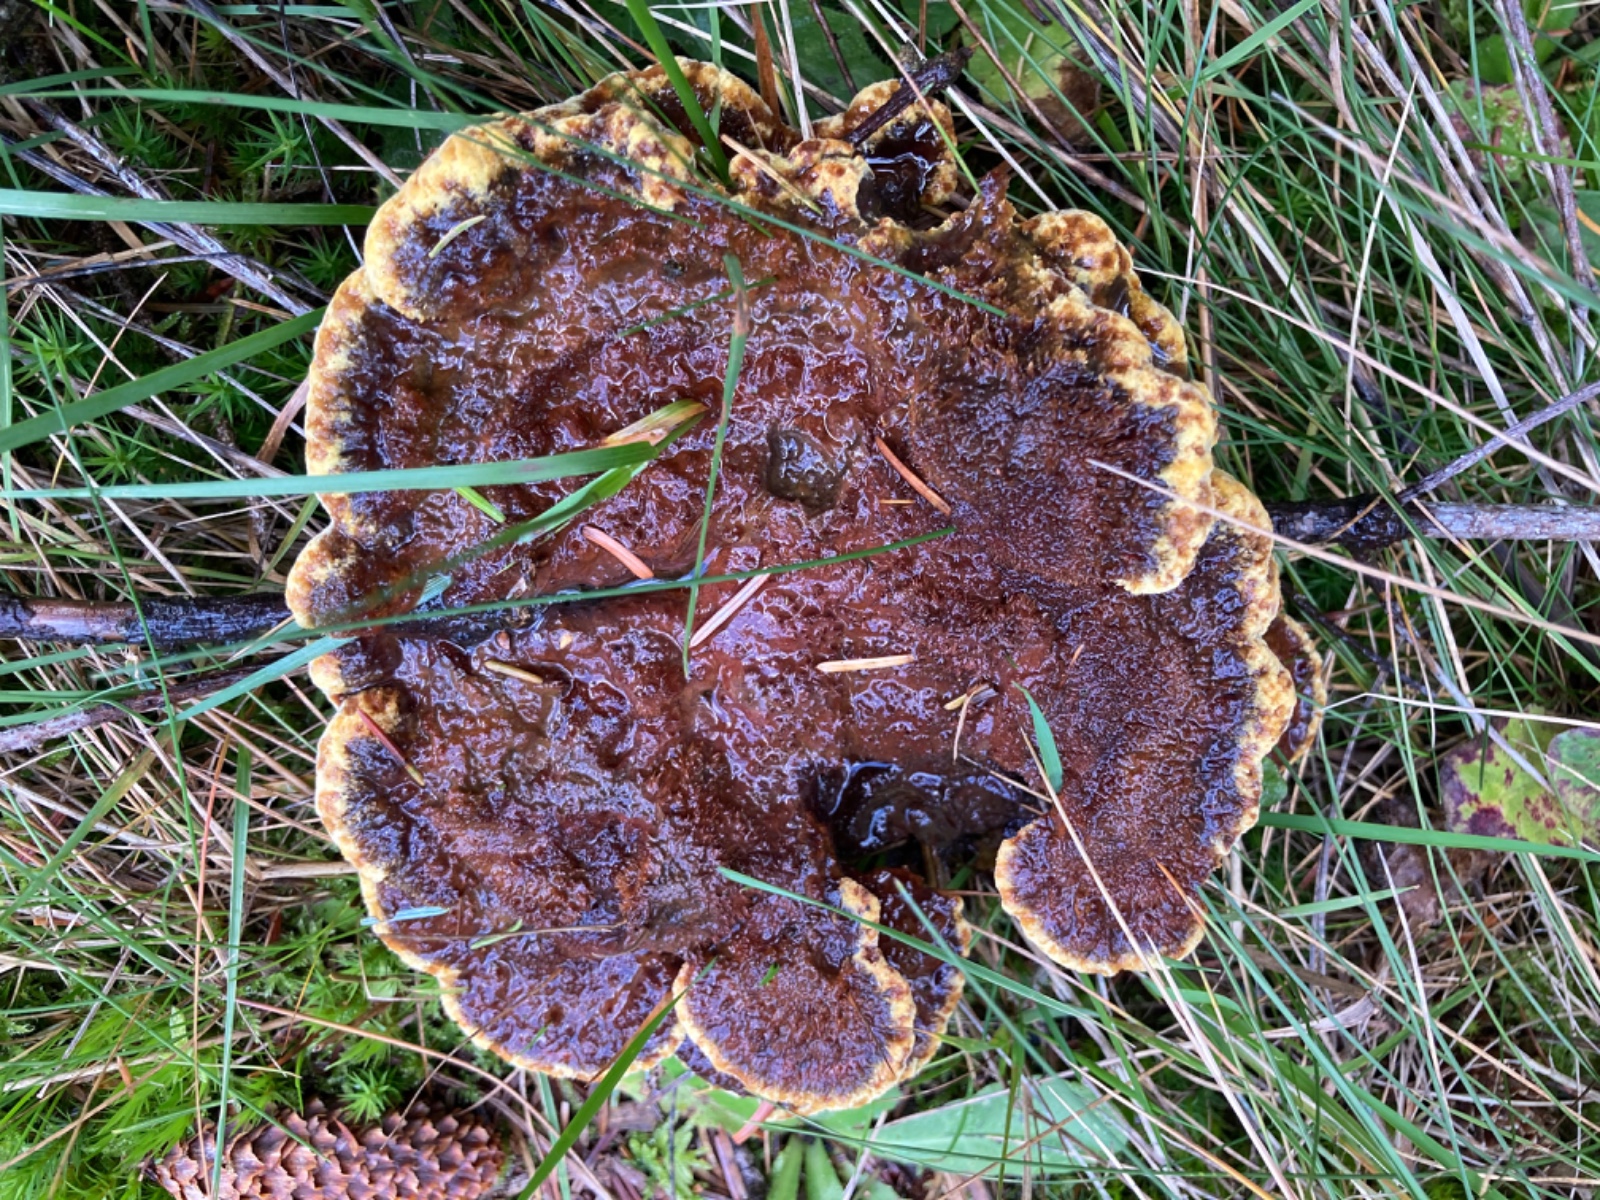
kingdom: Fungi
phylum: Basidiomycota
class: Agaricomycetes
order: Polyporales
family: Laetiporaceae
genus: Phaeolus
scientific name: Phaeolus schweinitzii
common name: brunporesvamp
